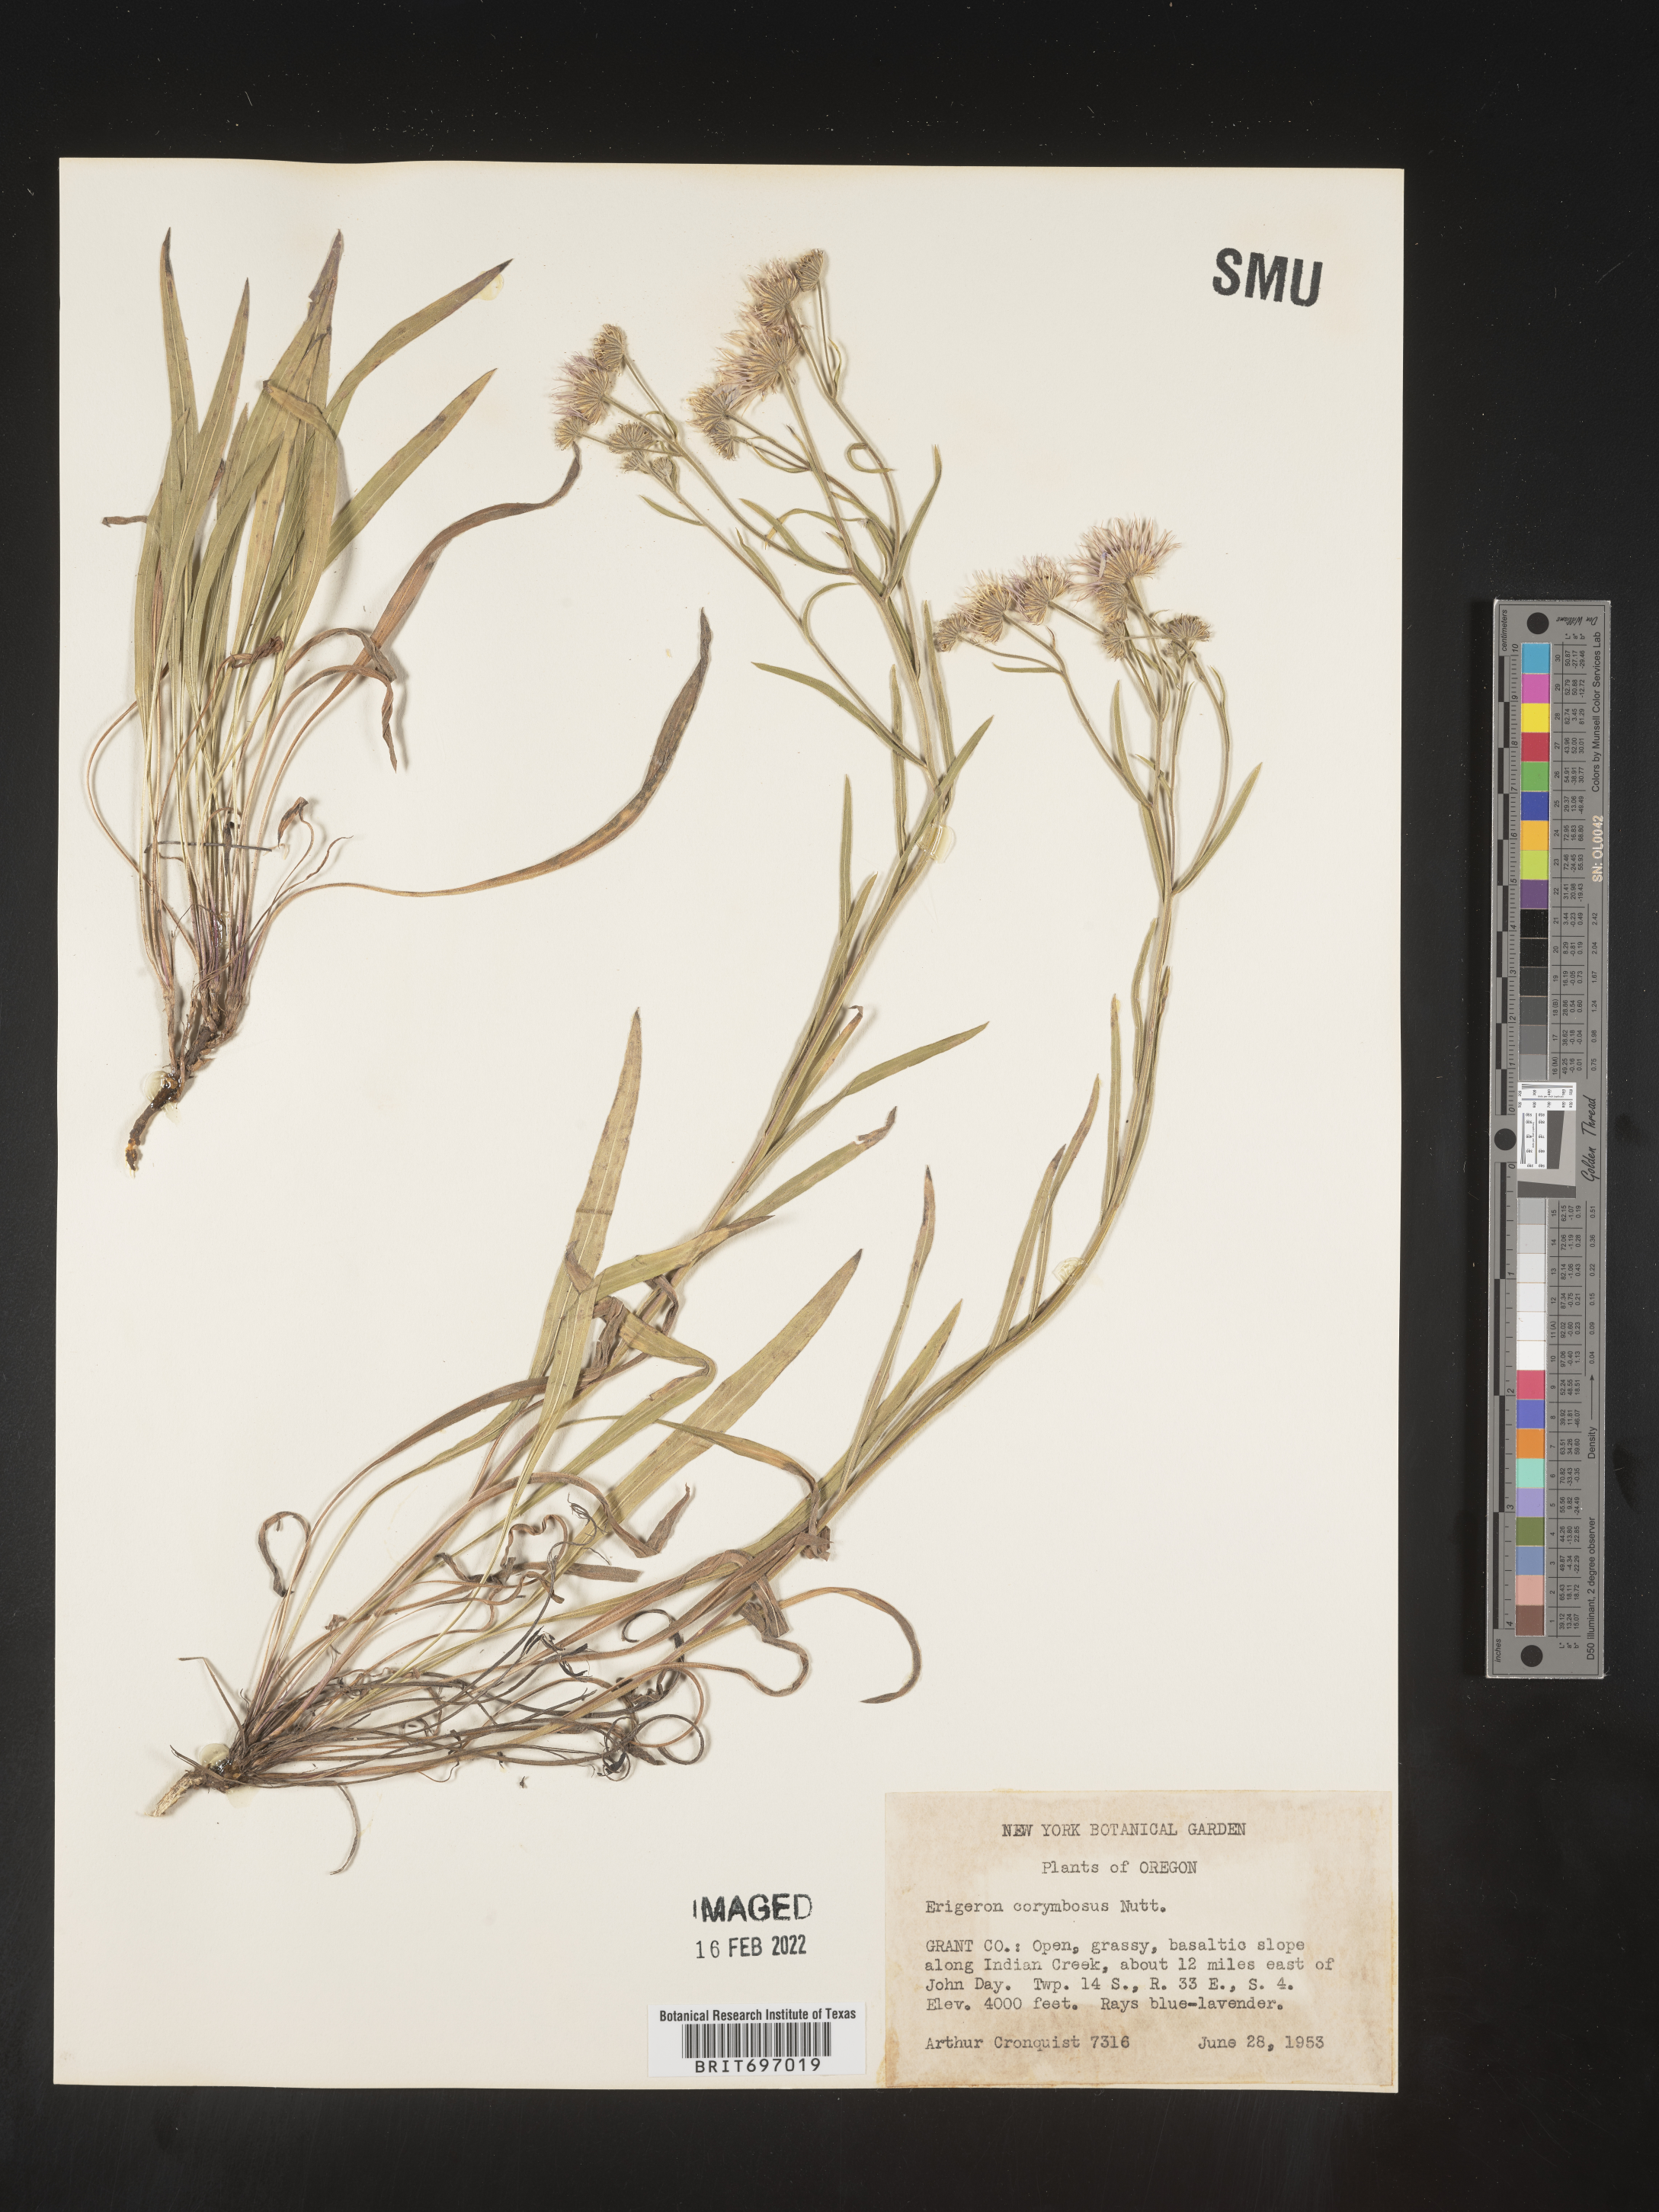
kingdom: Plantae
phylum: Tracheophyta
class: Magnoliopsida
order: Asterales
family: Asteraceae
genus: Erigeron
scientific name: Erigeron corymbosus
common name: Longleaf fleabane
